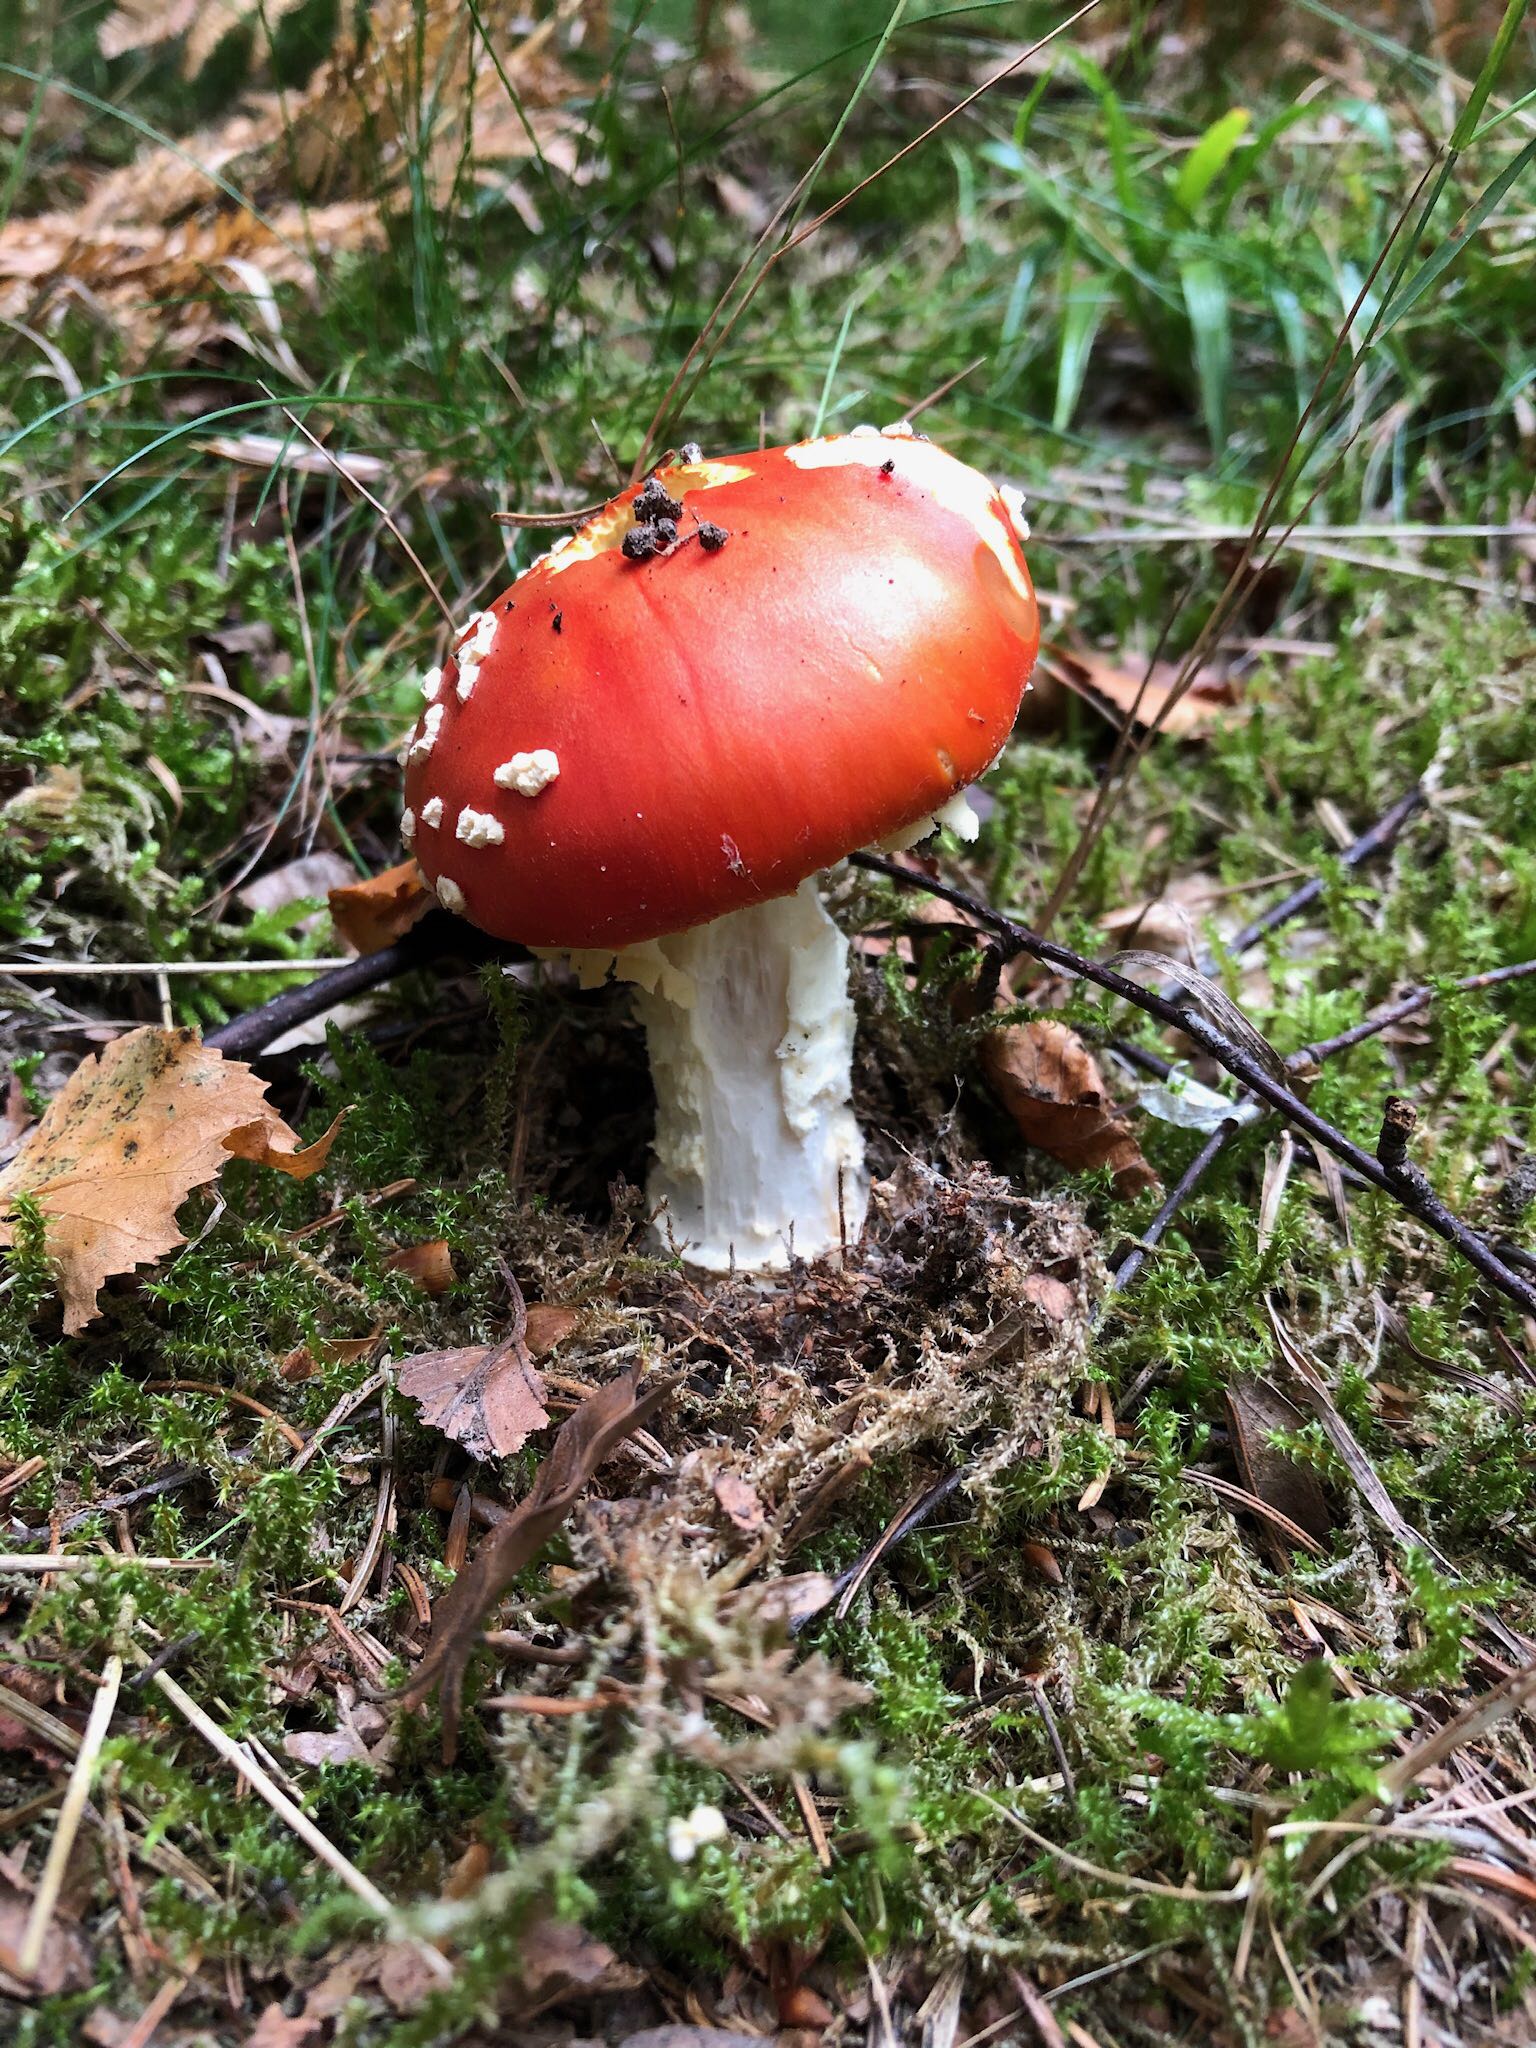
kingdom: Fungi
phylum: Basidiomycota
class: Agaricomycetes
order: Agaricales
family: Amanitaceae
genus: Amanita
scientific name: Amanita muscaria
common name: rød fluesvamp
